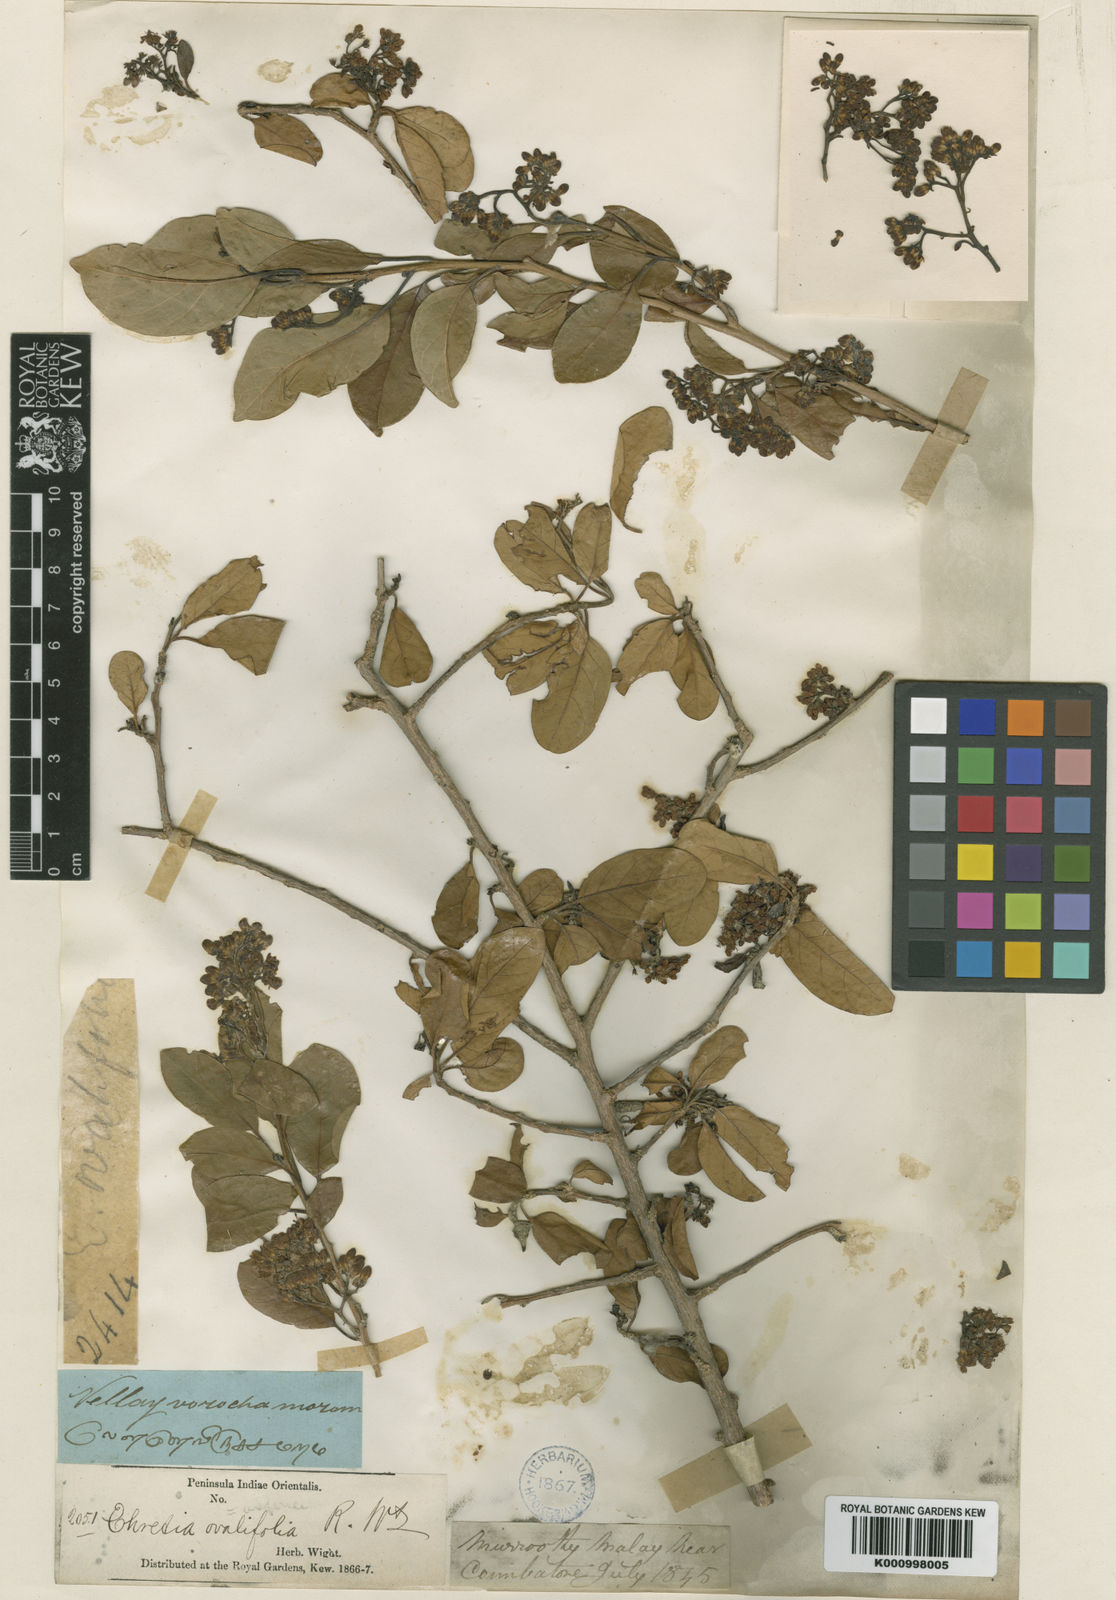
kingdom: Plantae
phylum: Tracheophyta
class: Magnoliopsida
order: Boraginales
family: Ehretiaceae
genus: Ehretia
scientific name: Ehretia matthewii
